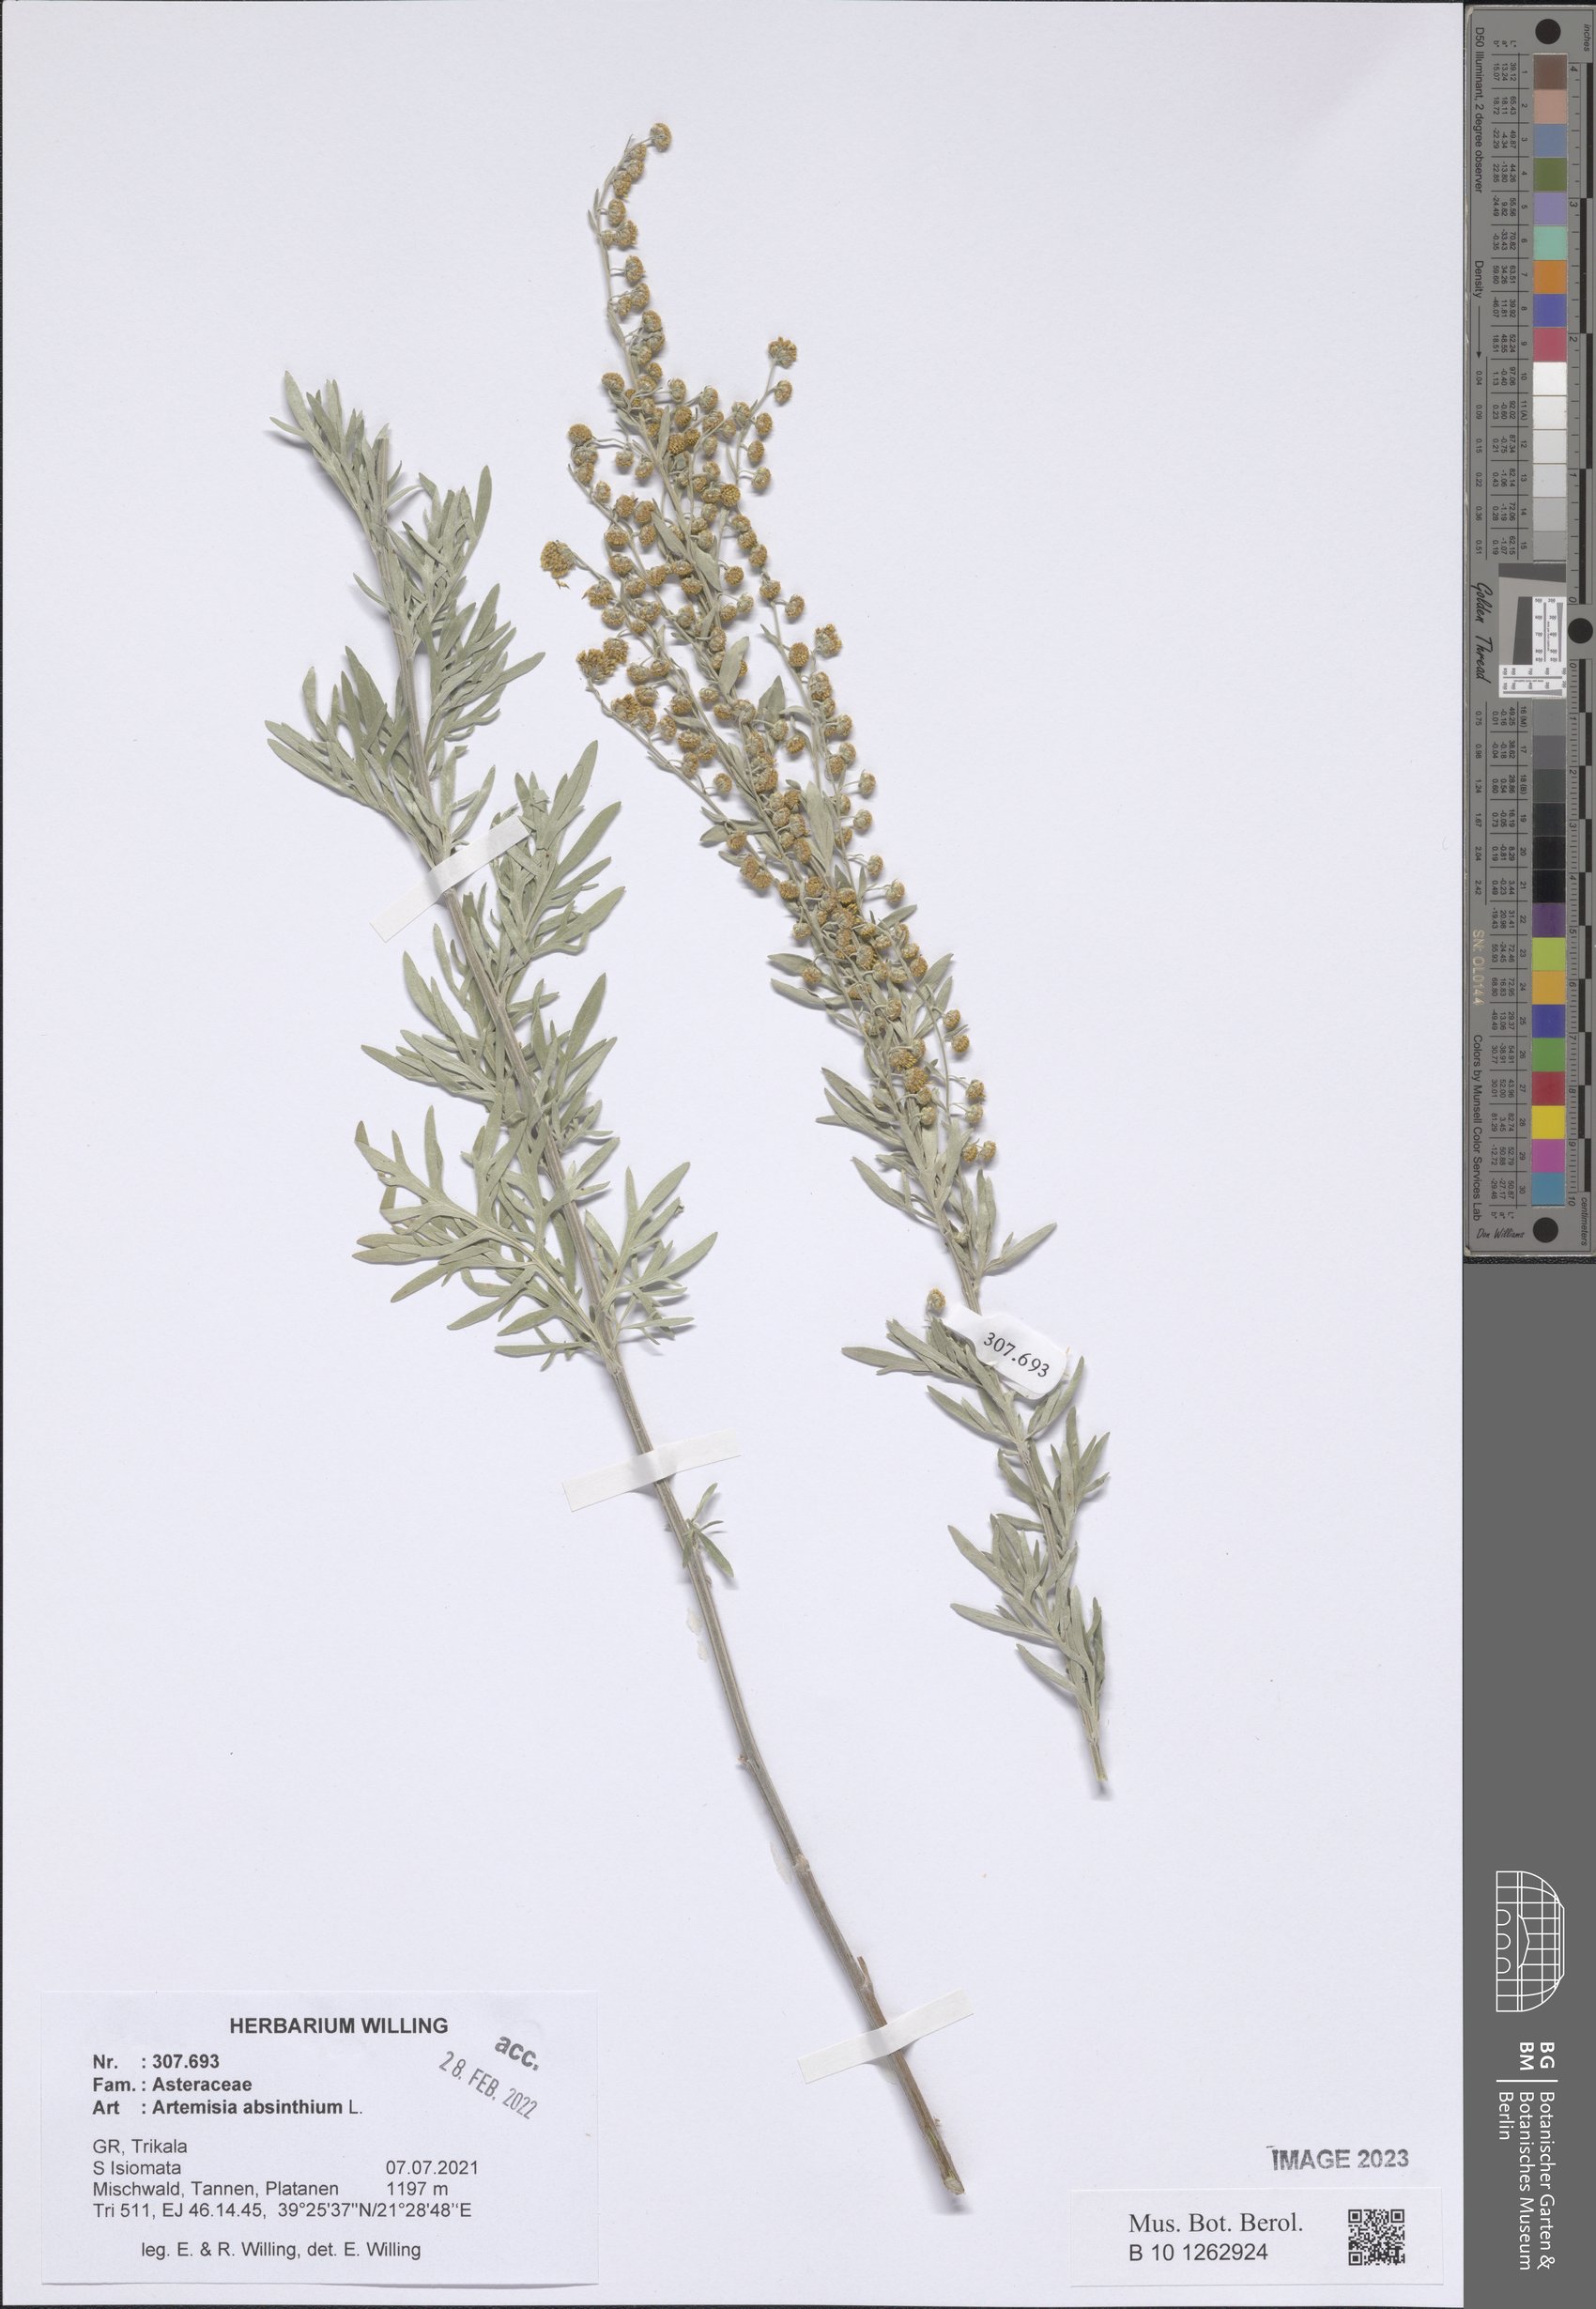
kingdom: Plantae
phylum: Tracheophyta
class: Magnoliopsida
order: Asterales
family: Asteraceae
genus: Artemisia
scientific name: Artemisia absinthium
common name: Wormwood
